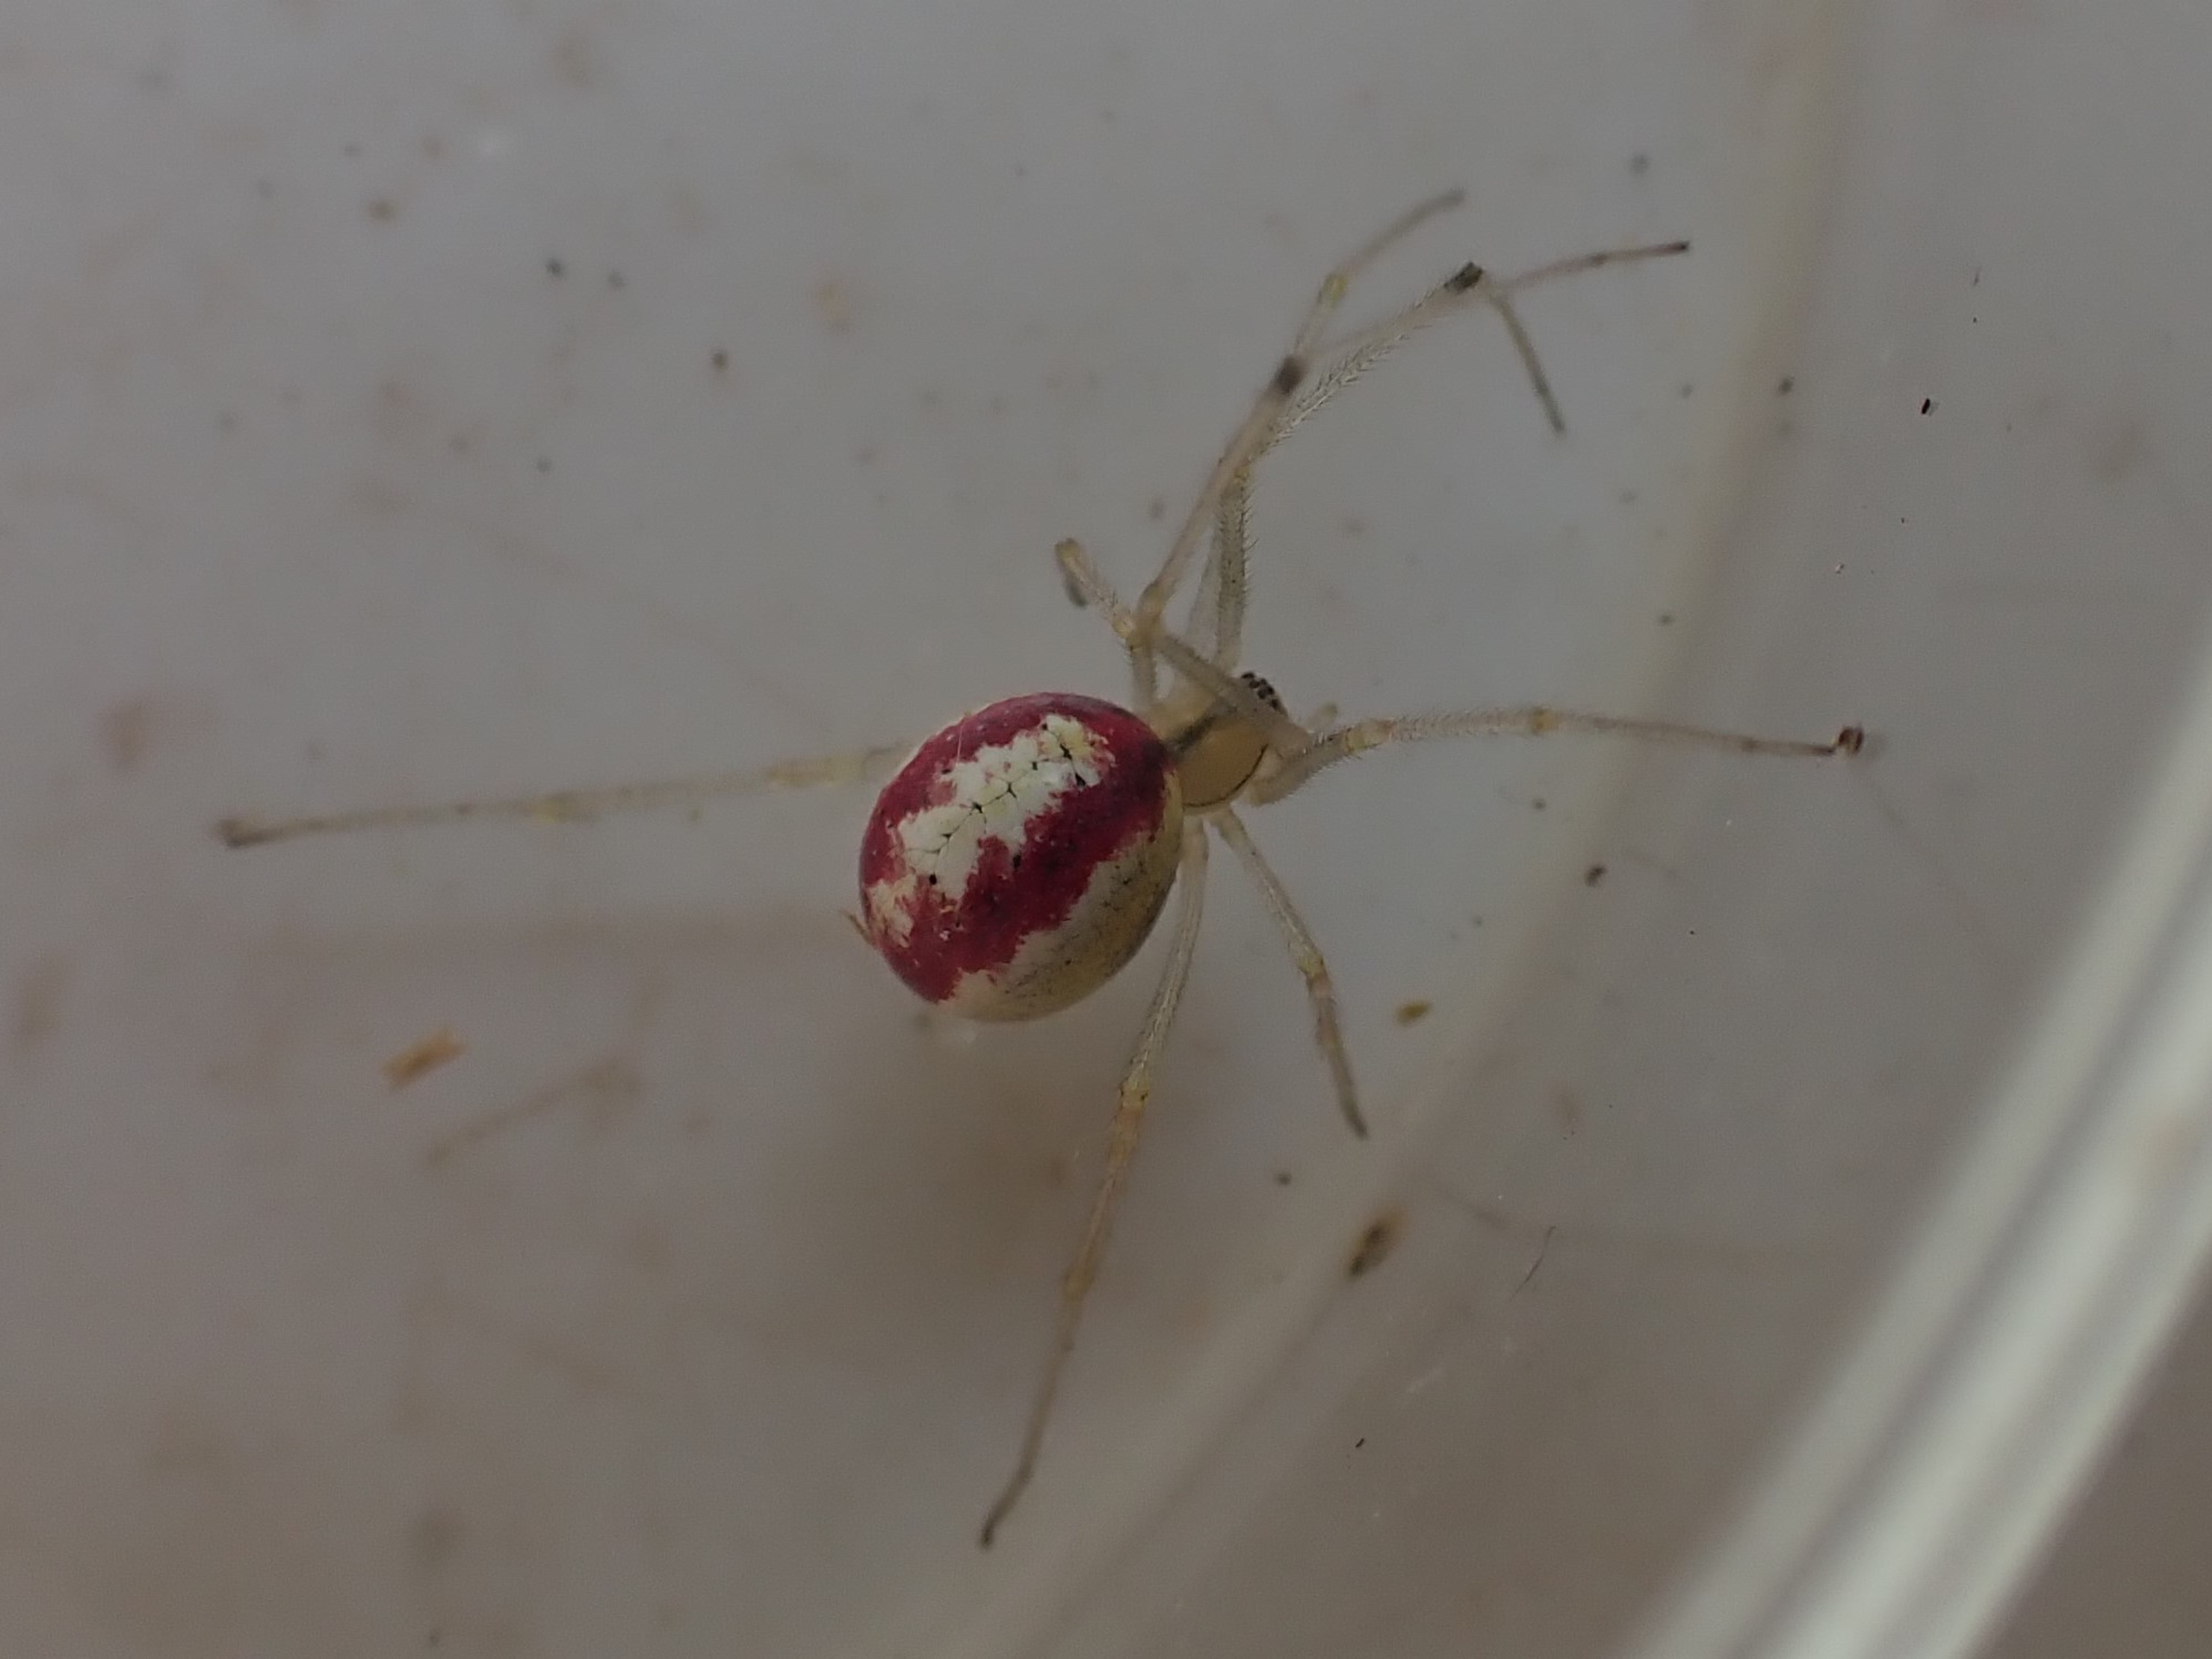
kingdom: Animalia
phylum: Arthropoda
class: Arachnida
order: Araneae
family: Theridiidae
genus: Enoplognatha
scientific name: Enoplognatha
